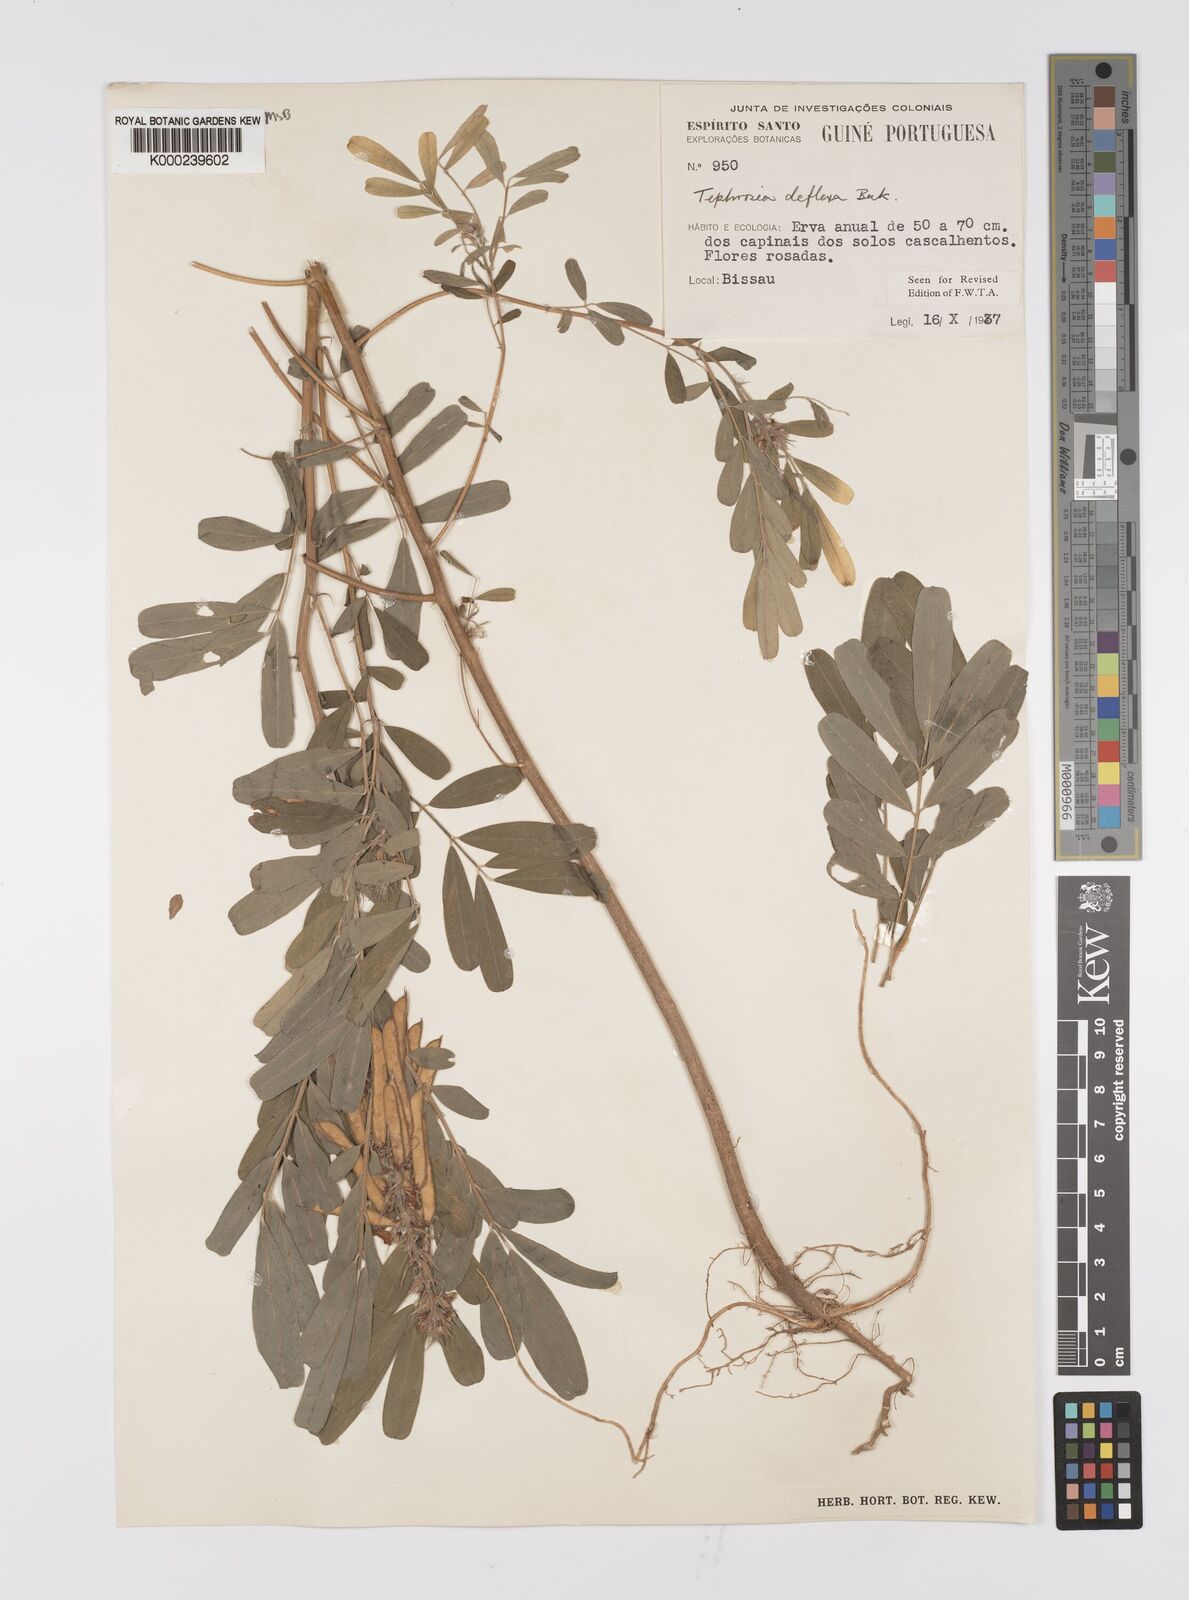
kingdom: Plantae
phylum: Tracheophyta
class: Magnoliopsida
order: Fabales
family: Fabaceae
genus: Tephrosia
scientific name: Tephrosia deflexa
